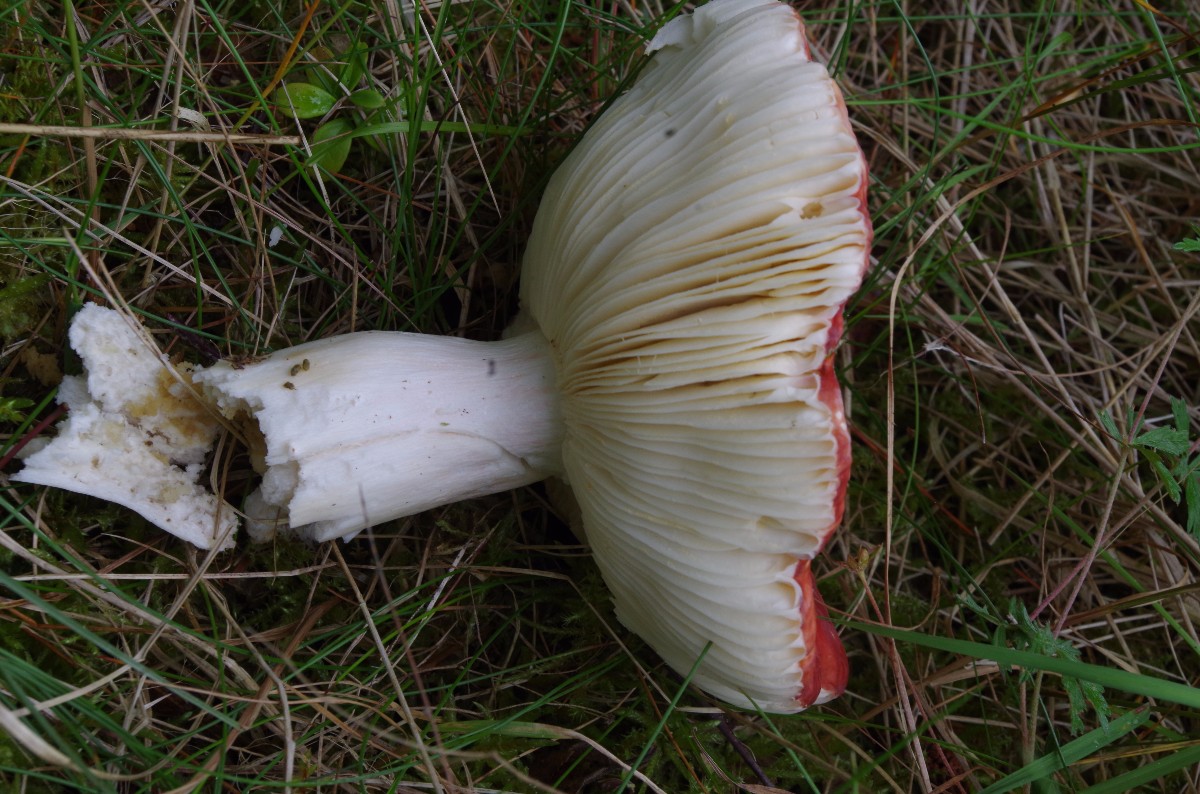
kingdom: Fungi
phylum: Basidiomycota
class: Agaricomycetes
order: Russulales
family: Russulaceae
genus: Russula
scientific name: Russula paludosa
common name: prægtig skørhat
